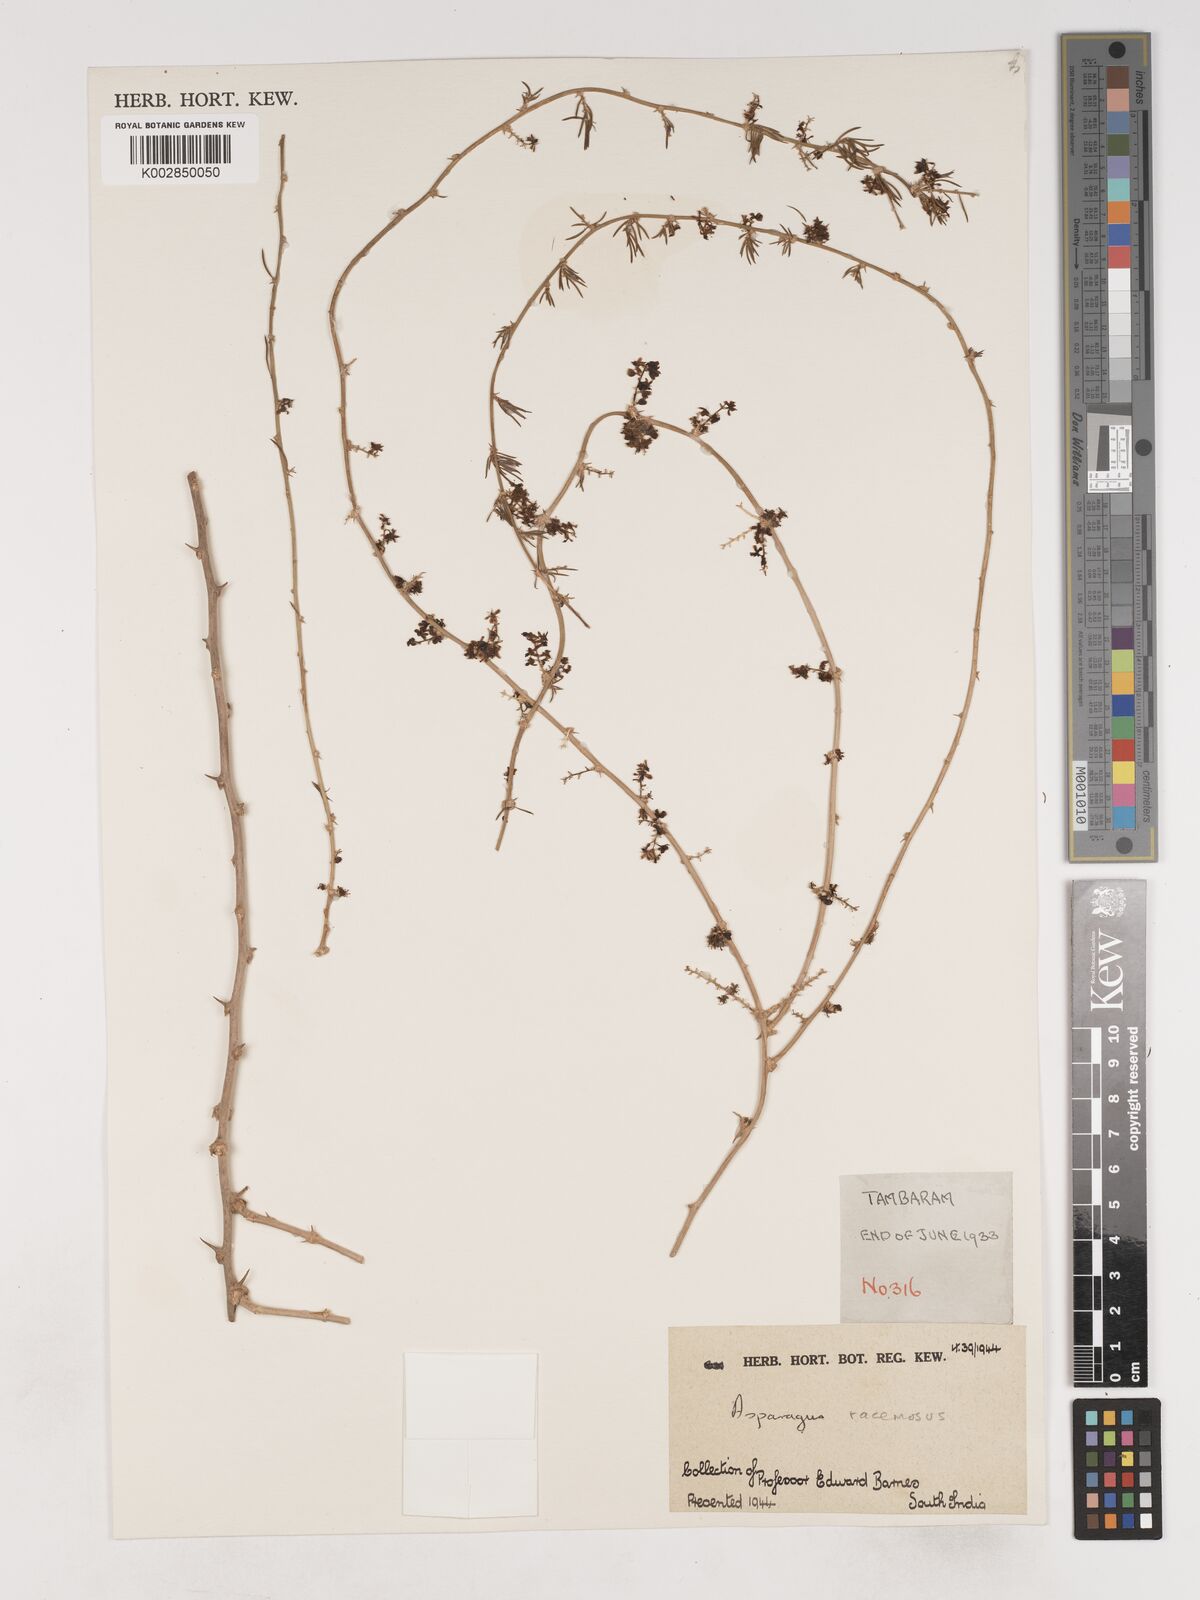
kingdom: Plantae
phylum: Tracheophyta
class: Liliopsida
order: Asparagales
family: Asparagaceae
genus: Asparagus
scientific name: Asparagus racemosus
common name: Asparagus-fern
